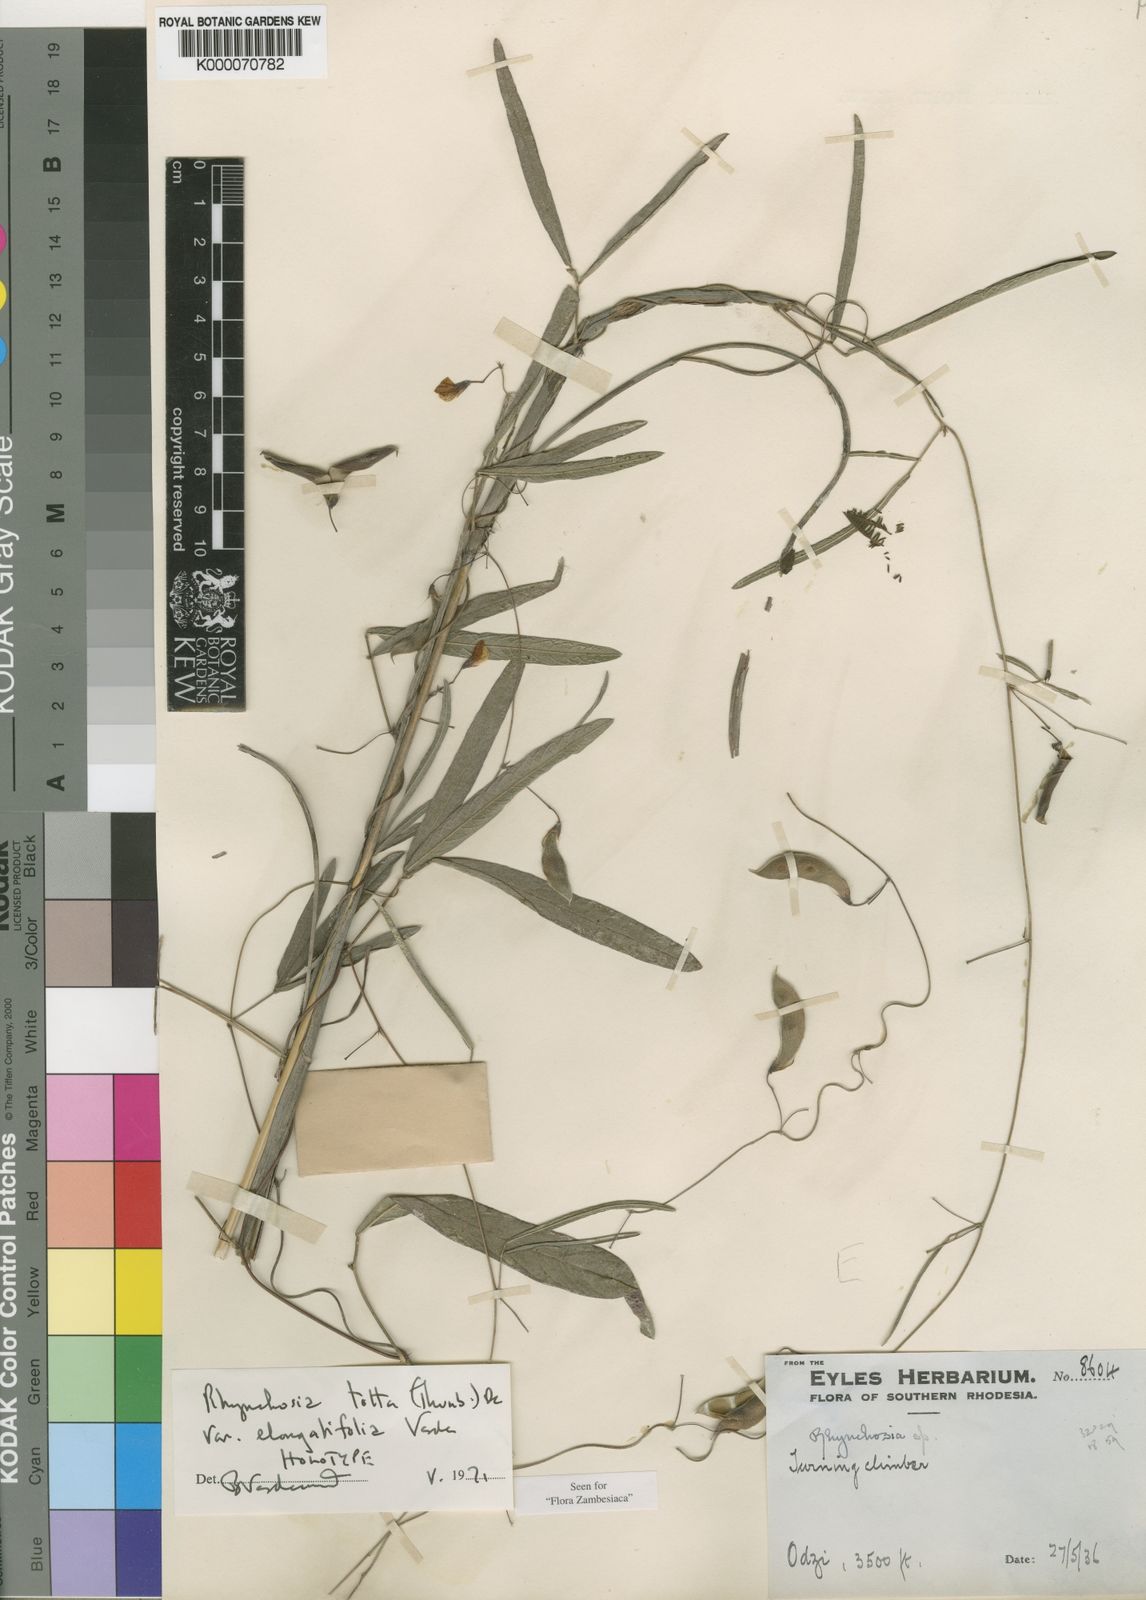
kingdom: Plantae
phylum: Tracheophyta
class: Magnoliopsida
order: Fabales
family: Fabaceae
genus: Rhynchosia
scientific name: Rhynchosia totta
